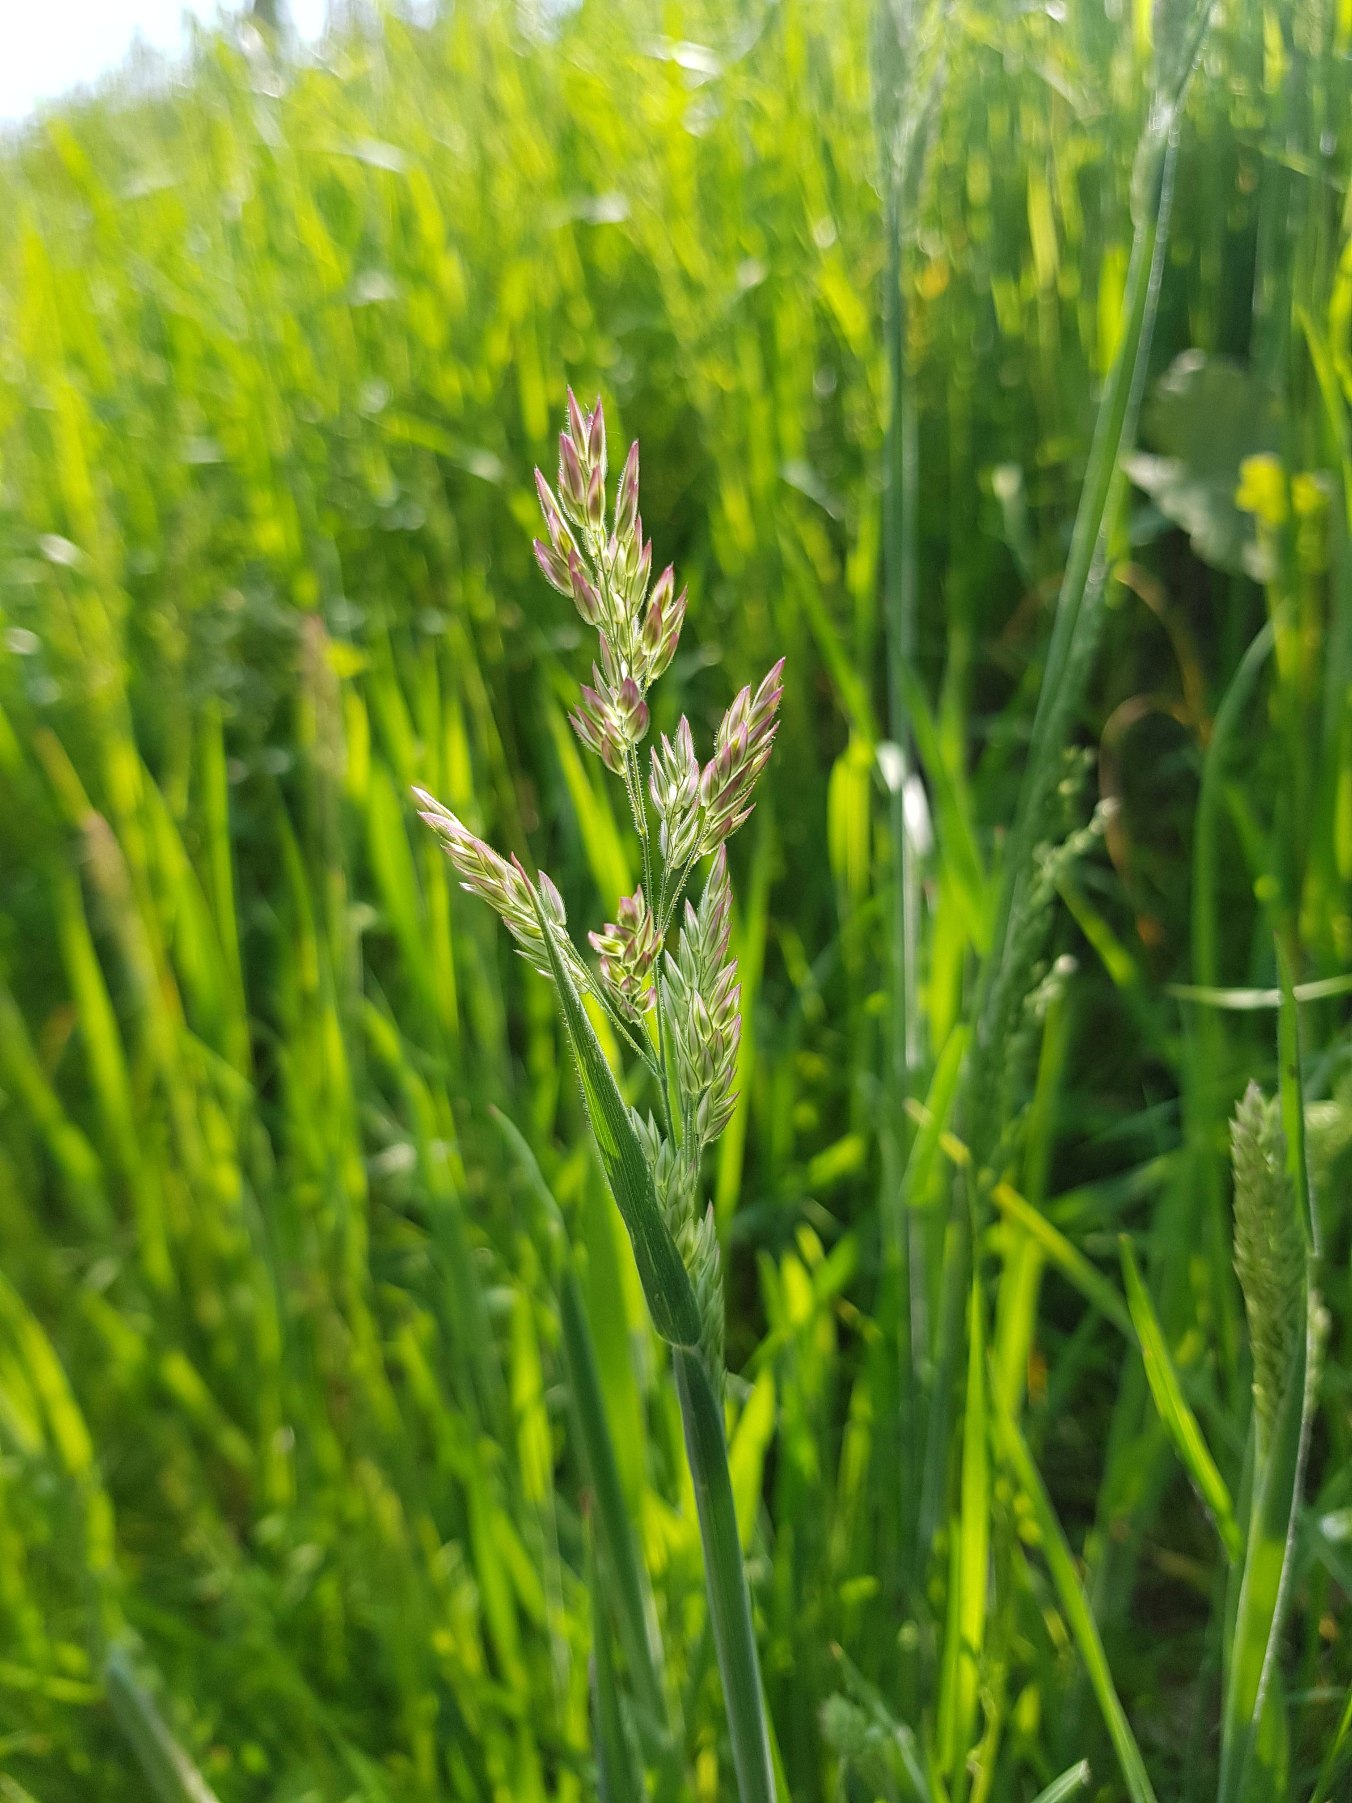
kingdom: Plantae
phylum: Tracheophyta
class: Liliopsida
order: Poales
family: Poaceae
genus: Holcus
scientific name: Holcus lanatus
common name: Fløjlsgræs
